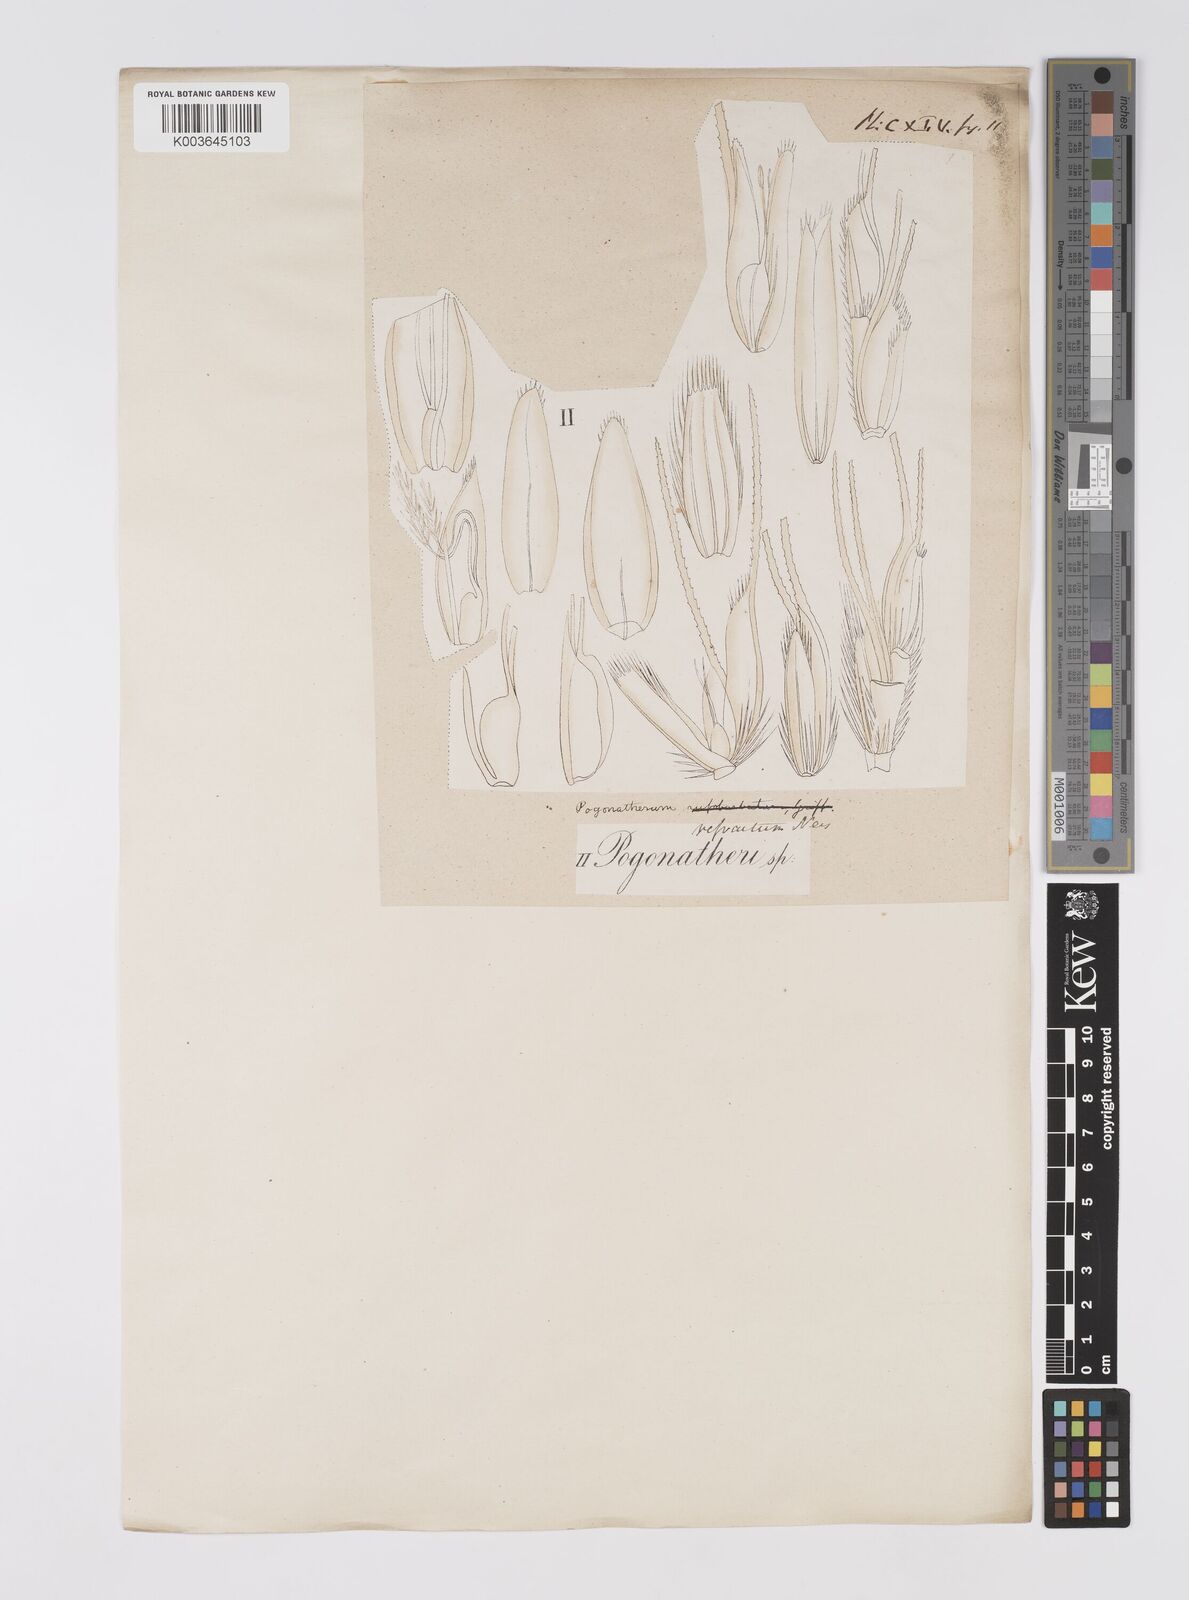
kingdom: Plantae
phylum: Tracheophyta
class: Liliopsida
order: Poales
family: Poaceae
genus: Pogonatherum
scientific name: Pogonatherum rufobarbatum
